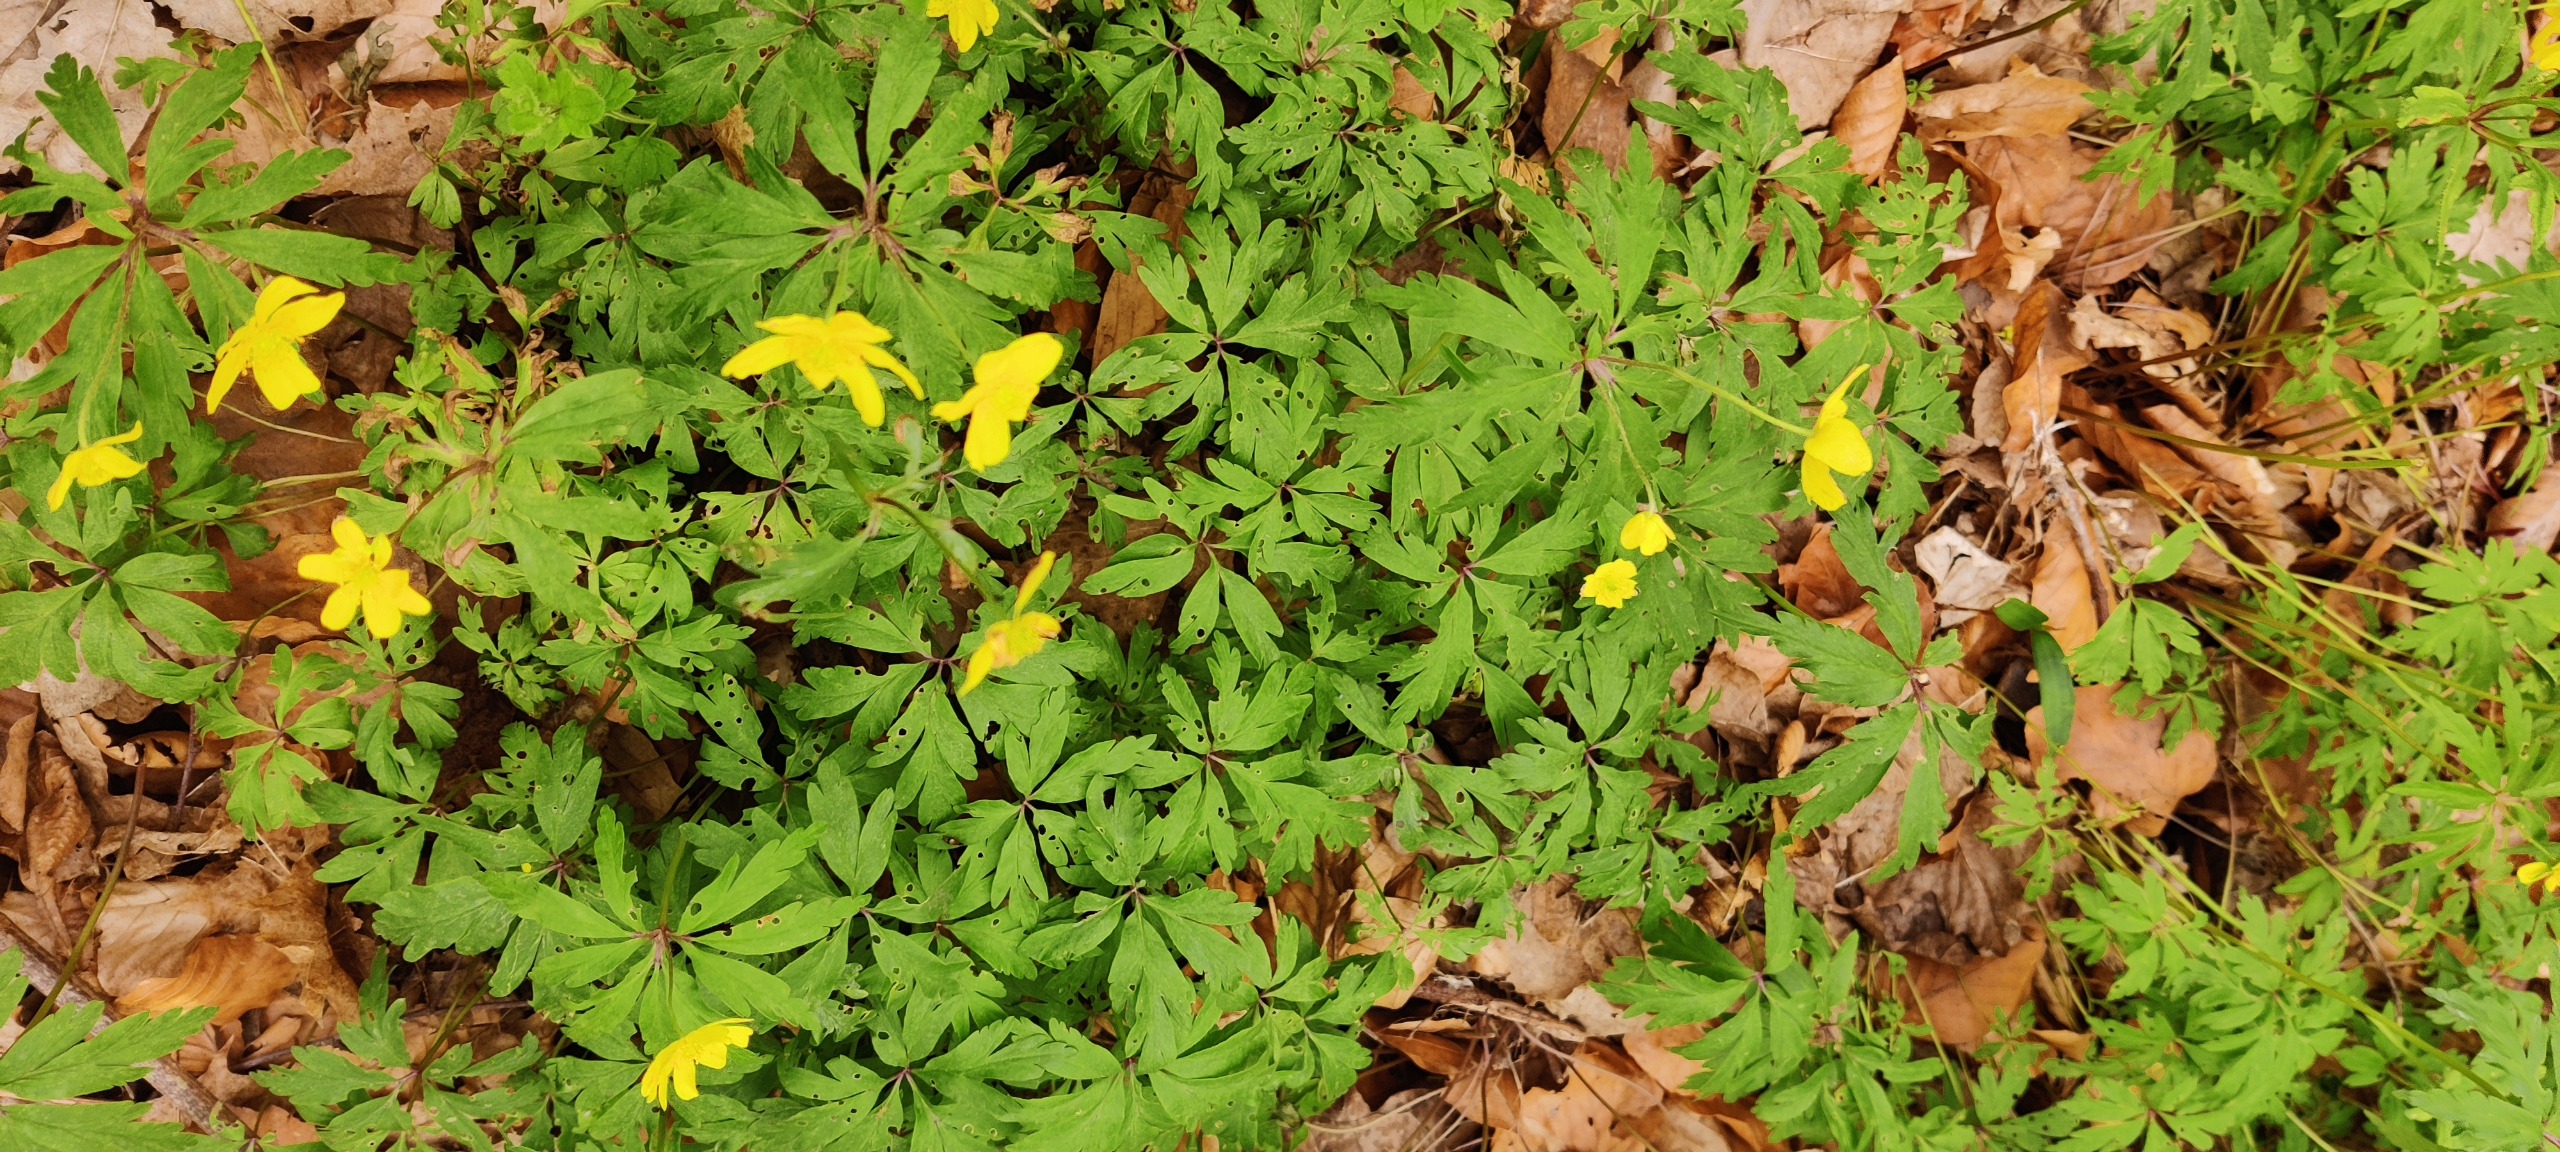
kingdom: Plantae
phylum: Tracheophyta
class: Magnoliopsida
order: Ranunculales
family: Ranunculaceae
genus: Anemone
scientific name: Anemone ranunculoides
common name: Gul anemone
